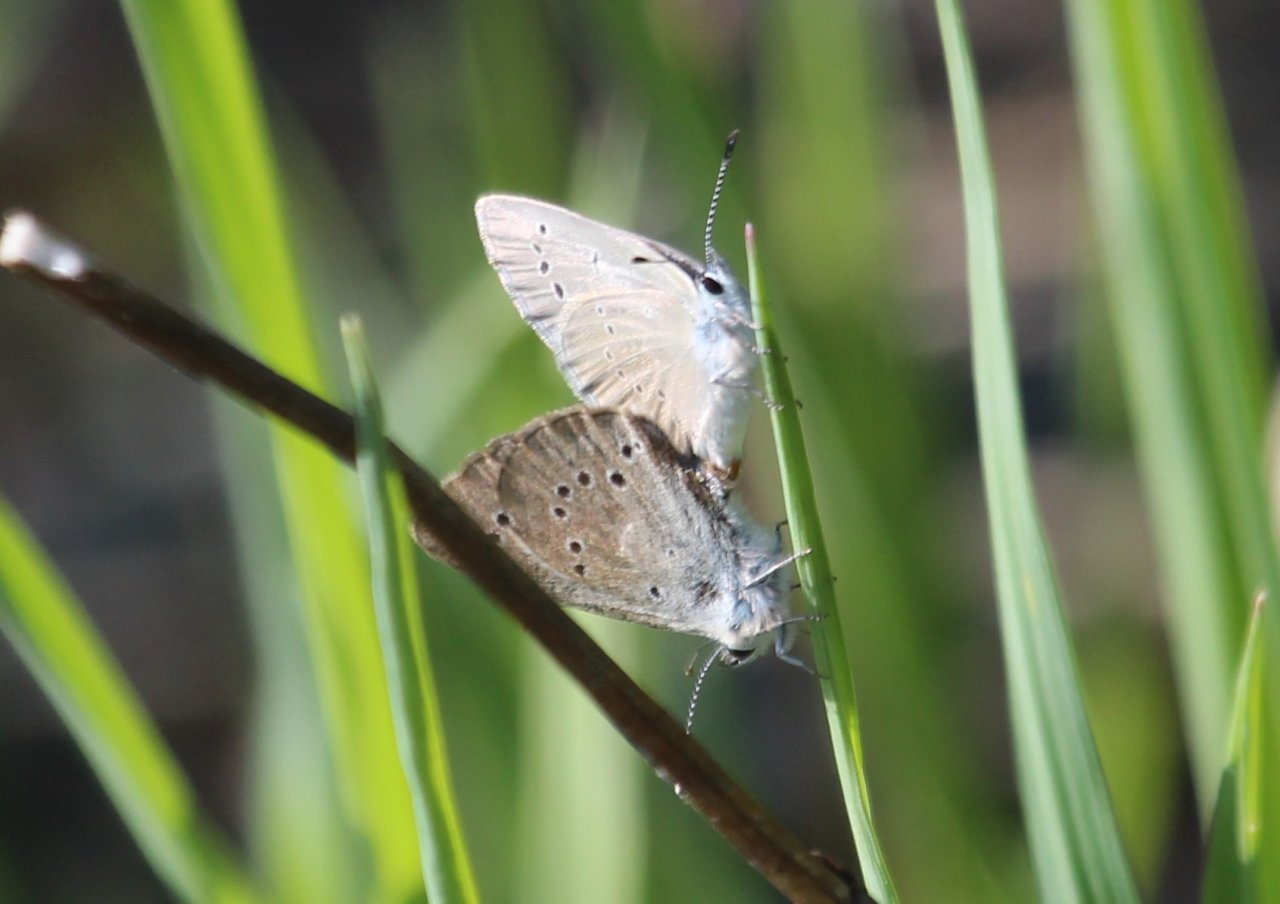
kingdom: Animalia
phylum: Arthropoda
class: Insecta
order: Lepidoptera
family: Lycaenidae
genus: Glaucopsyche
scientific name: Glaucopsyche lygdamus
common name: Silvery Blue
